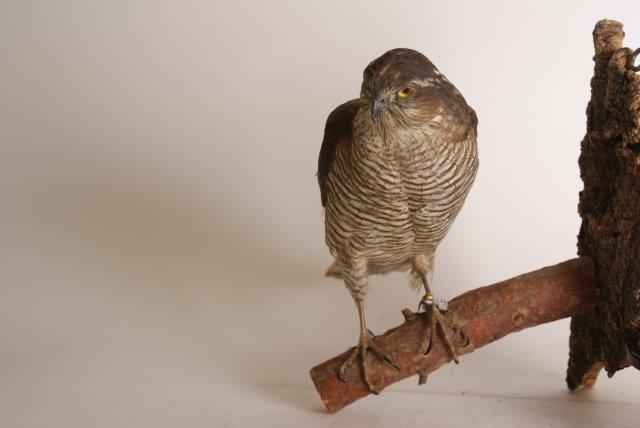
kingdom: Animalia
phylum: Chordata
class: Aves
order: Accipitriformes
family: Accipitridae
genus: Accipiter
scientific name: Accipiter nisus
